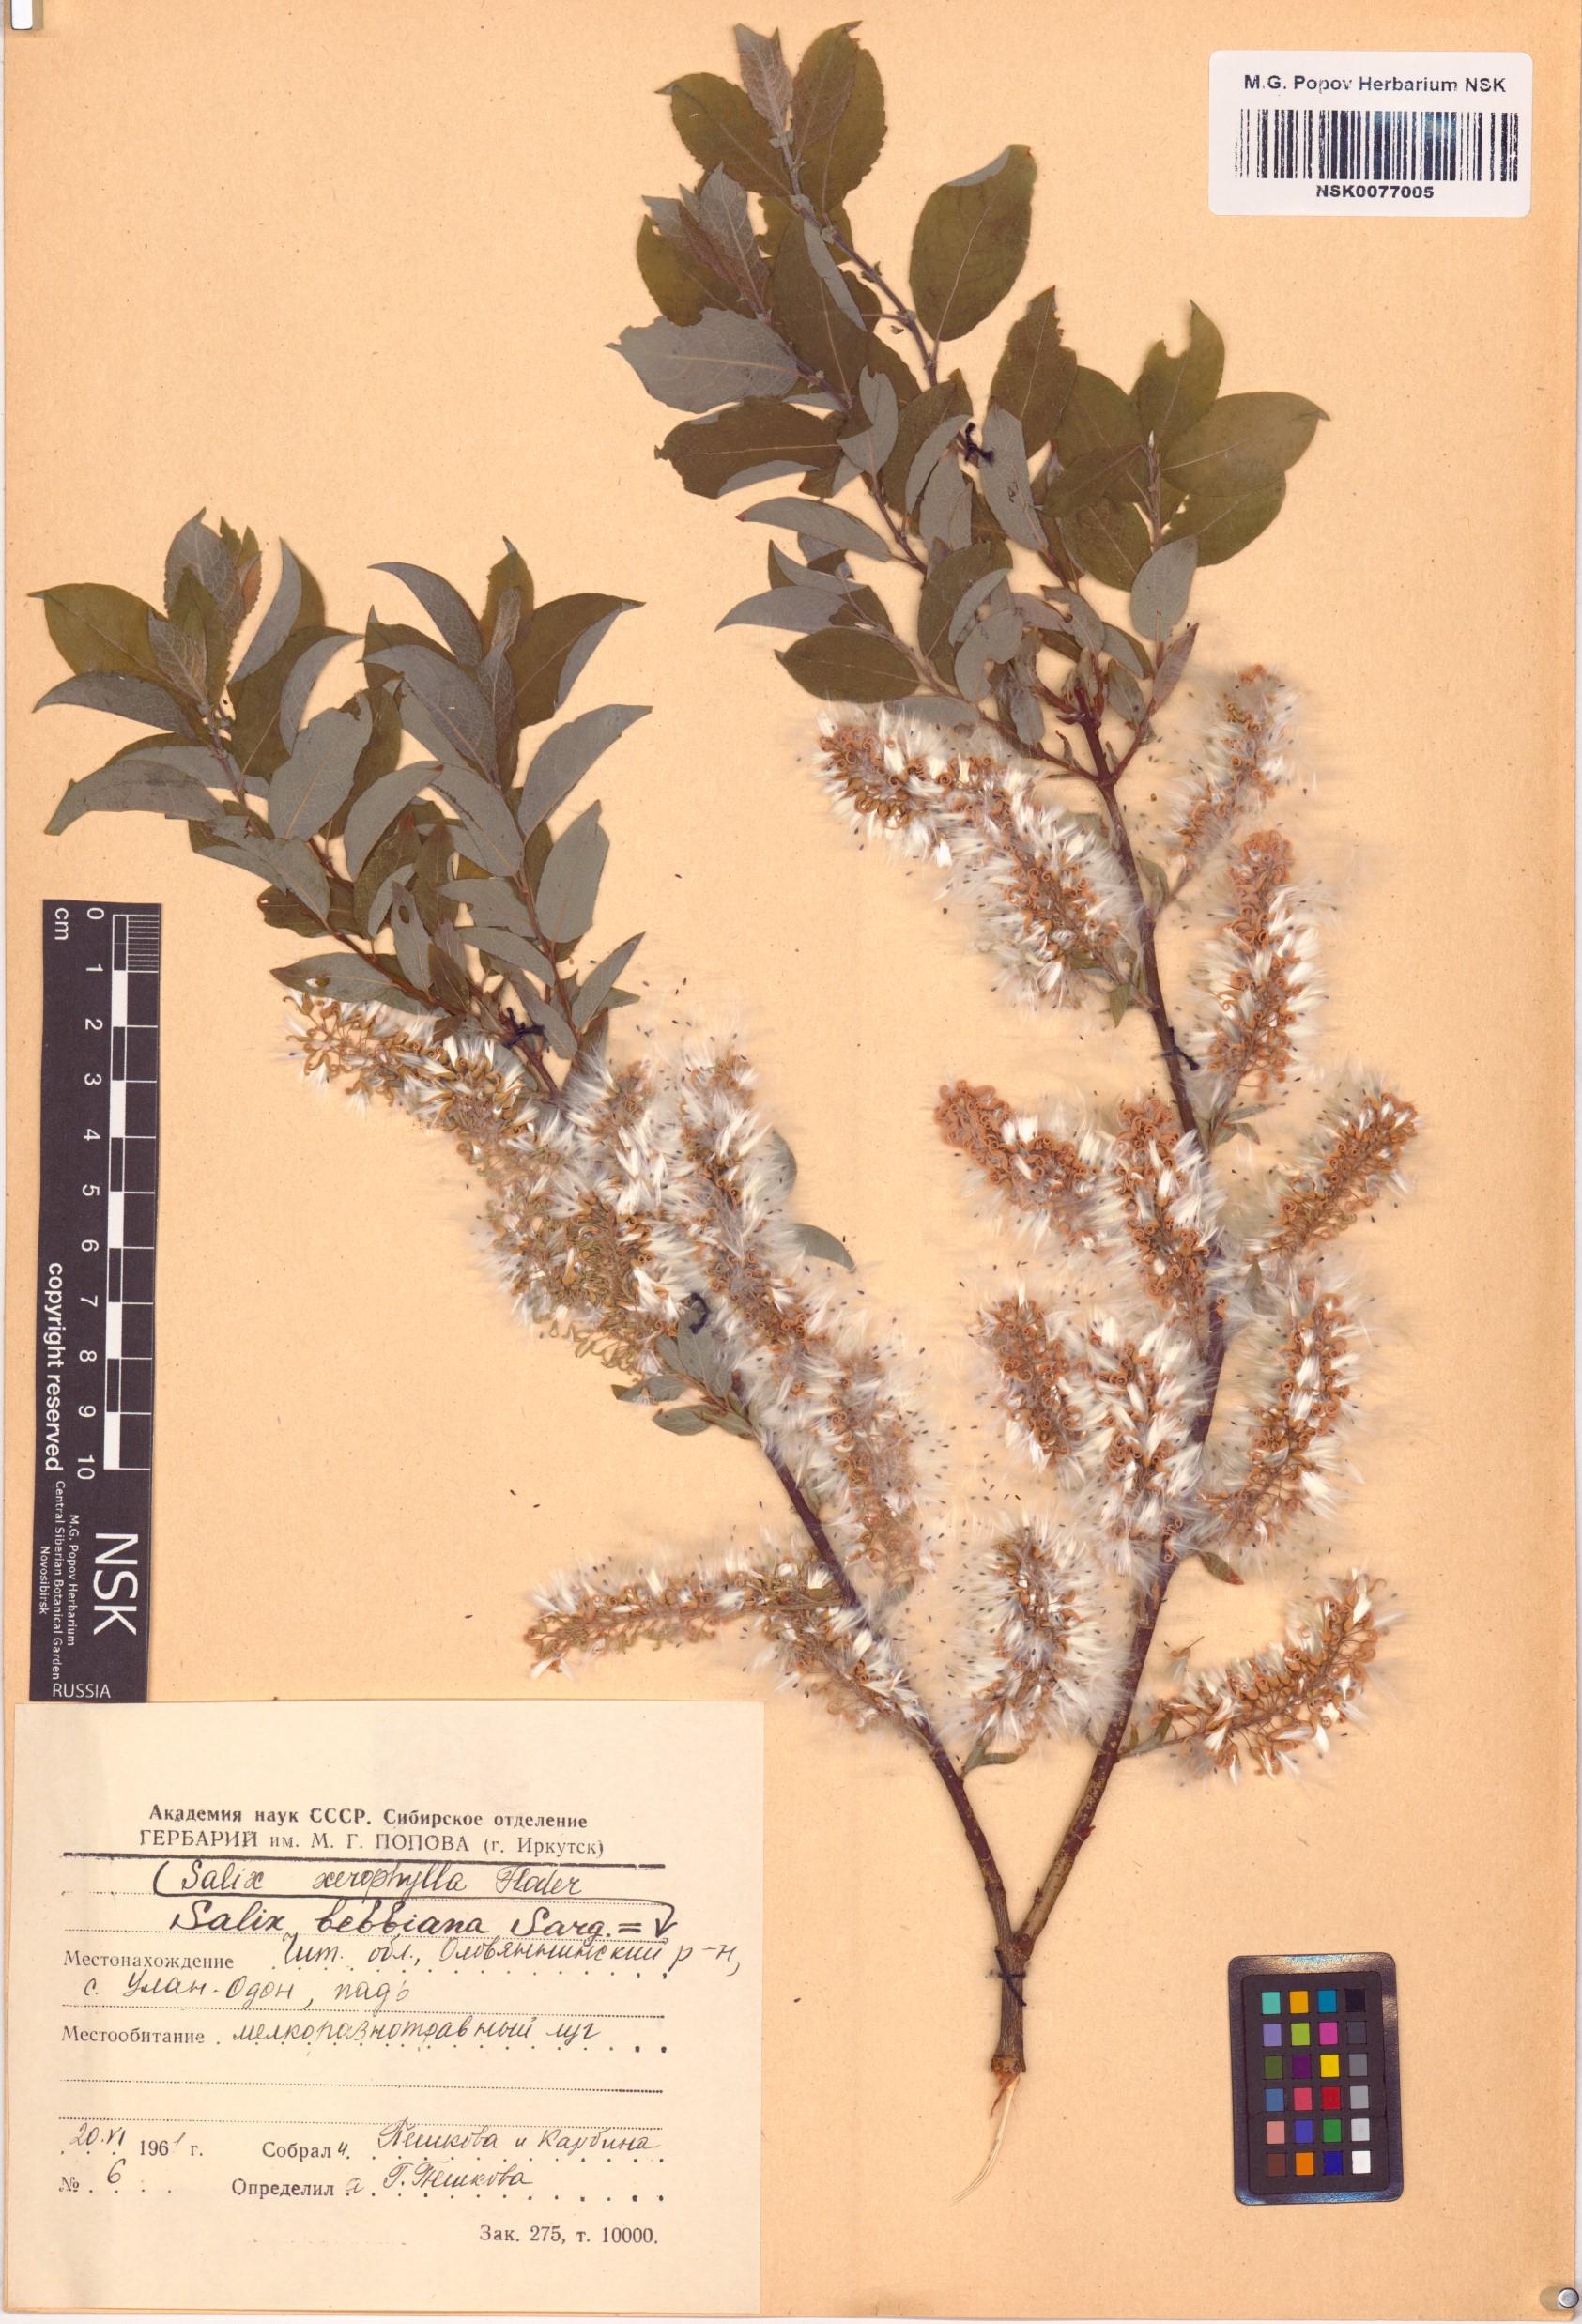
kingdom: Plantae
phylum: Tracheophyta
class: Magnoliopsida
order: Malpighiales
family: Salicaceae
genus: Salix
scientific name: Salix bebbiana
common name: Bebb's willow
